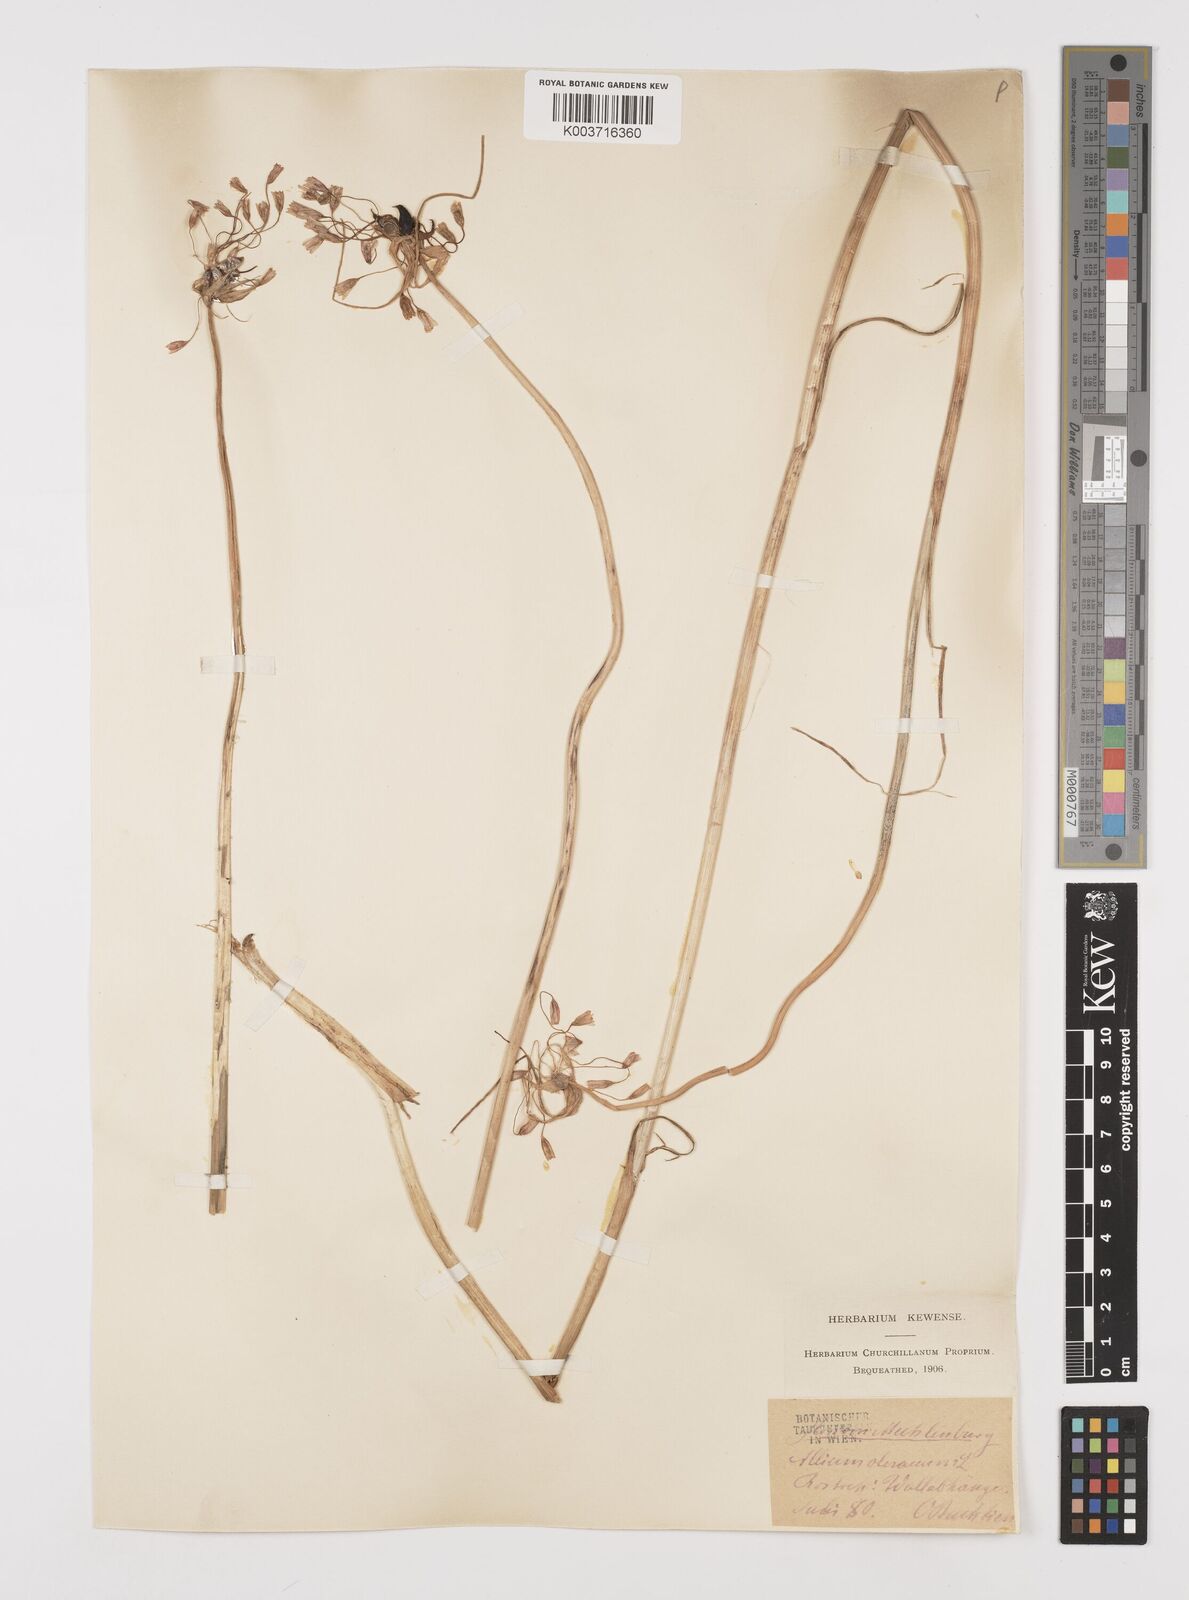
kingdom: Plantae
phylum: Tracheophyta
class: Liliopsida
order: Asparagales
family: Amaryllidaceae
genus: Allium
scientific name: Allium oleraceum
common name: Field garlic
